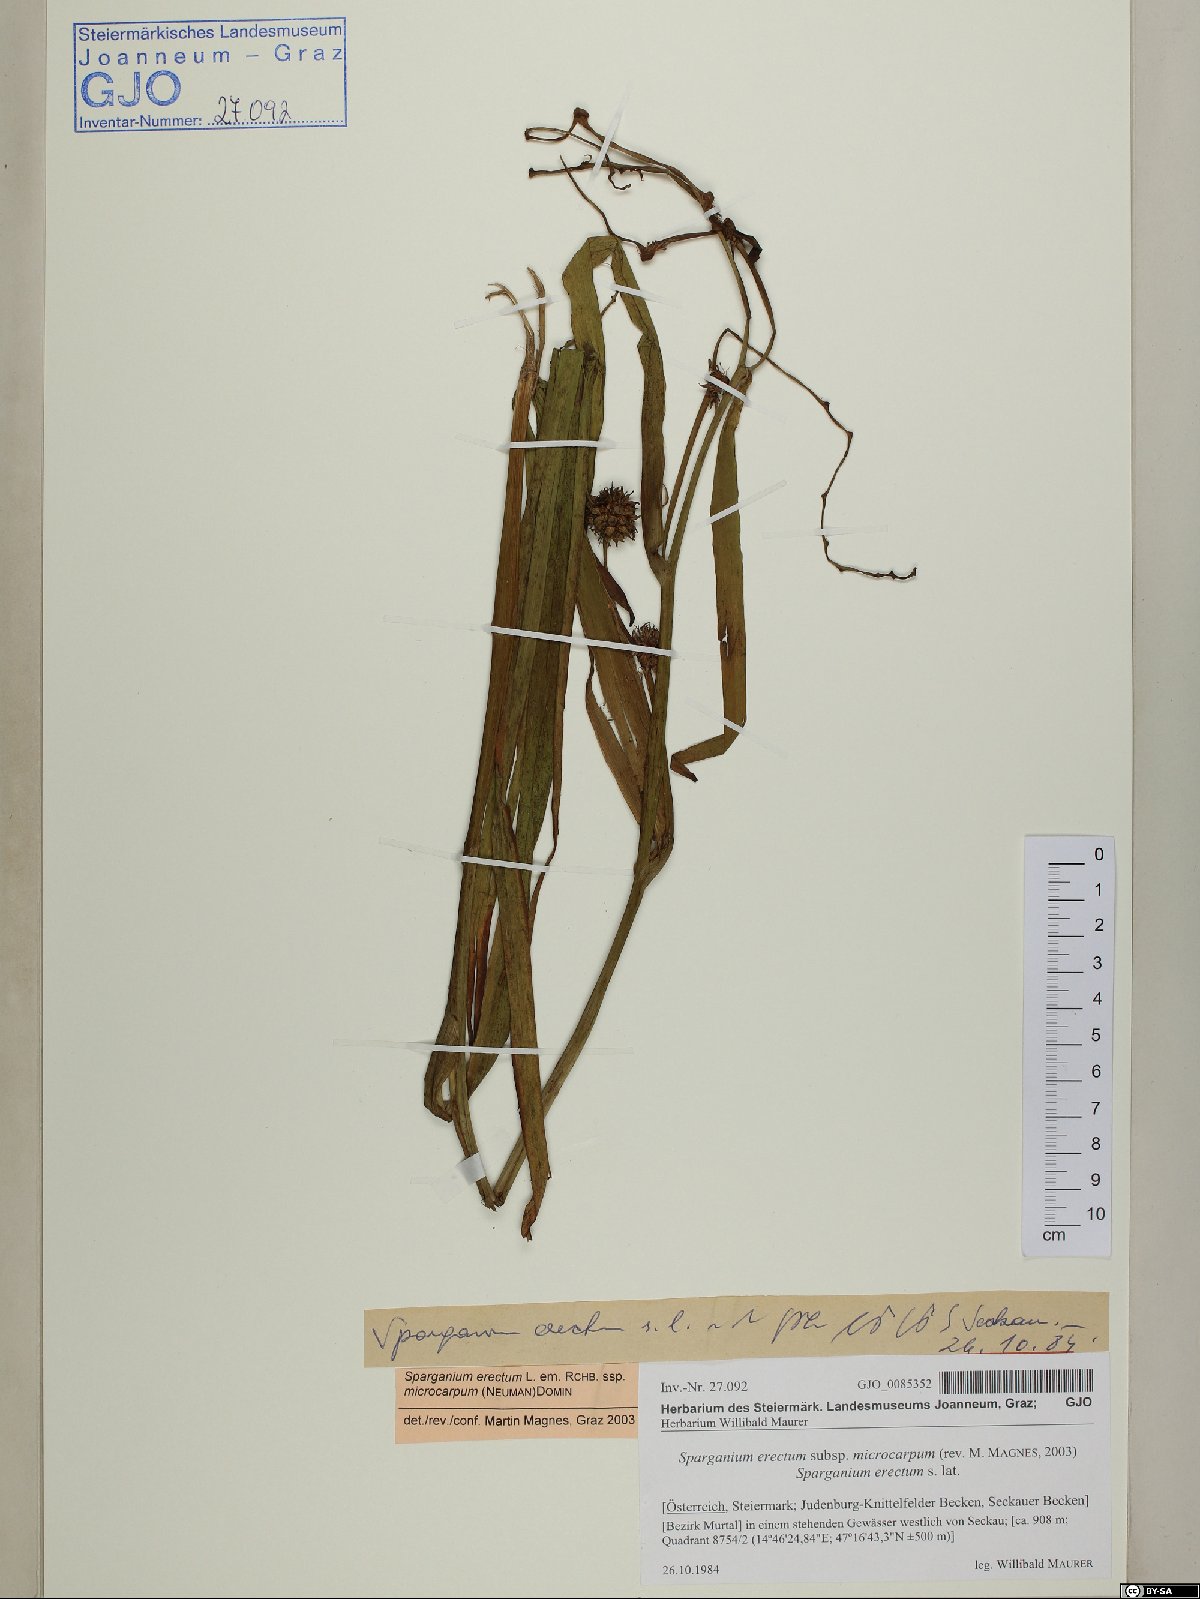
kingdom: Plantae
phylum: Tracheophyta
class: Liliopsida
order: Poales
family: Typhaceae
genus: Sparganium
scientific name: Sparganium erectum
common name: Branched bur-reed
